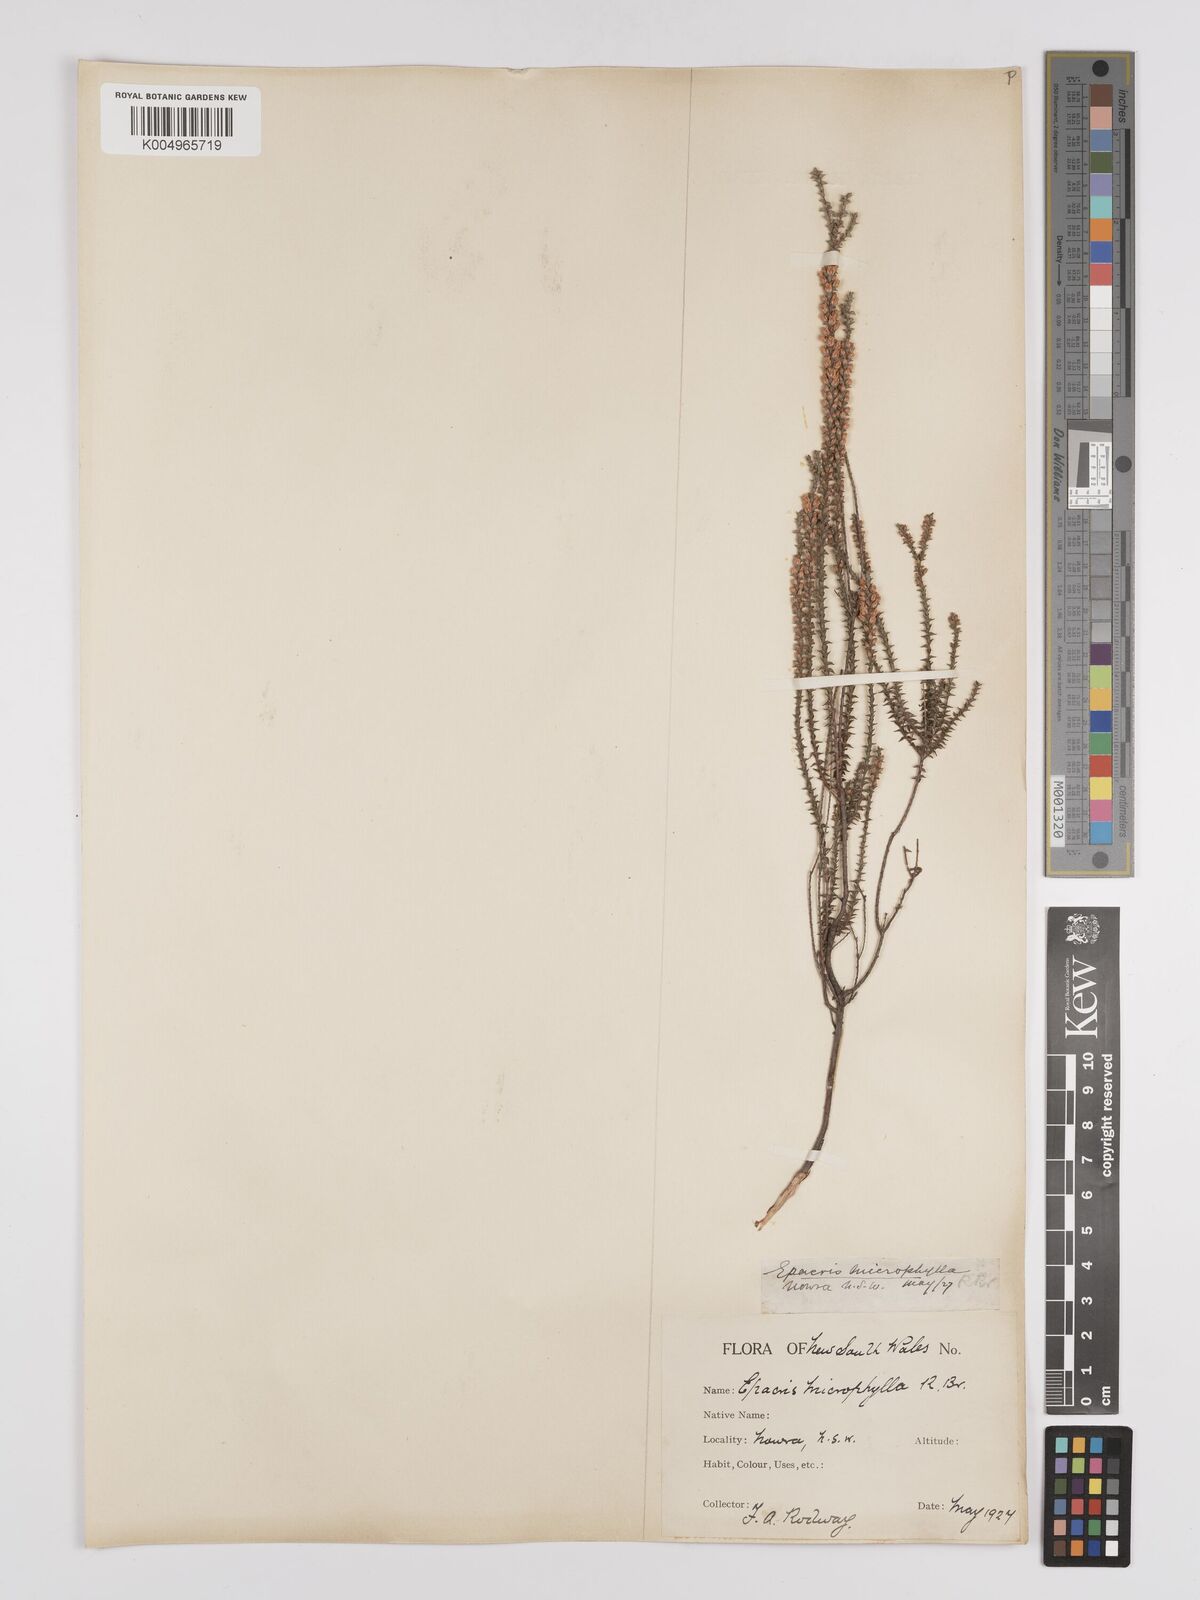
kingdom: Plantae
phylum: Tracheophyta
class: Magnoliopsida
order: Ericales
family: Ericaceae
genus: Epacris
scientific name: Epacris
